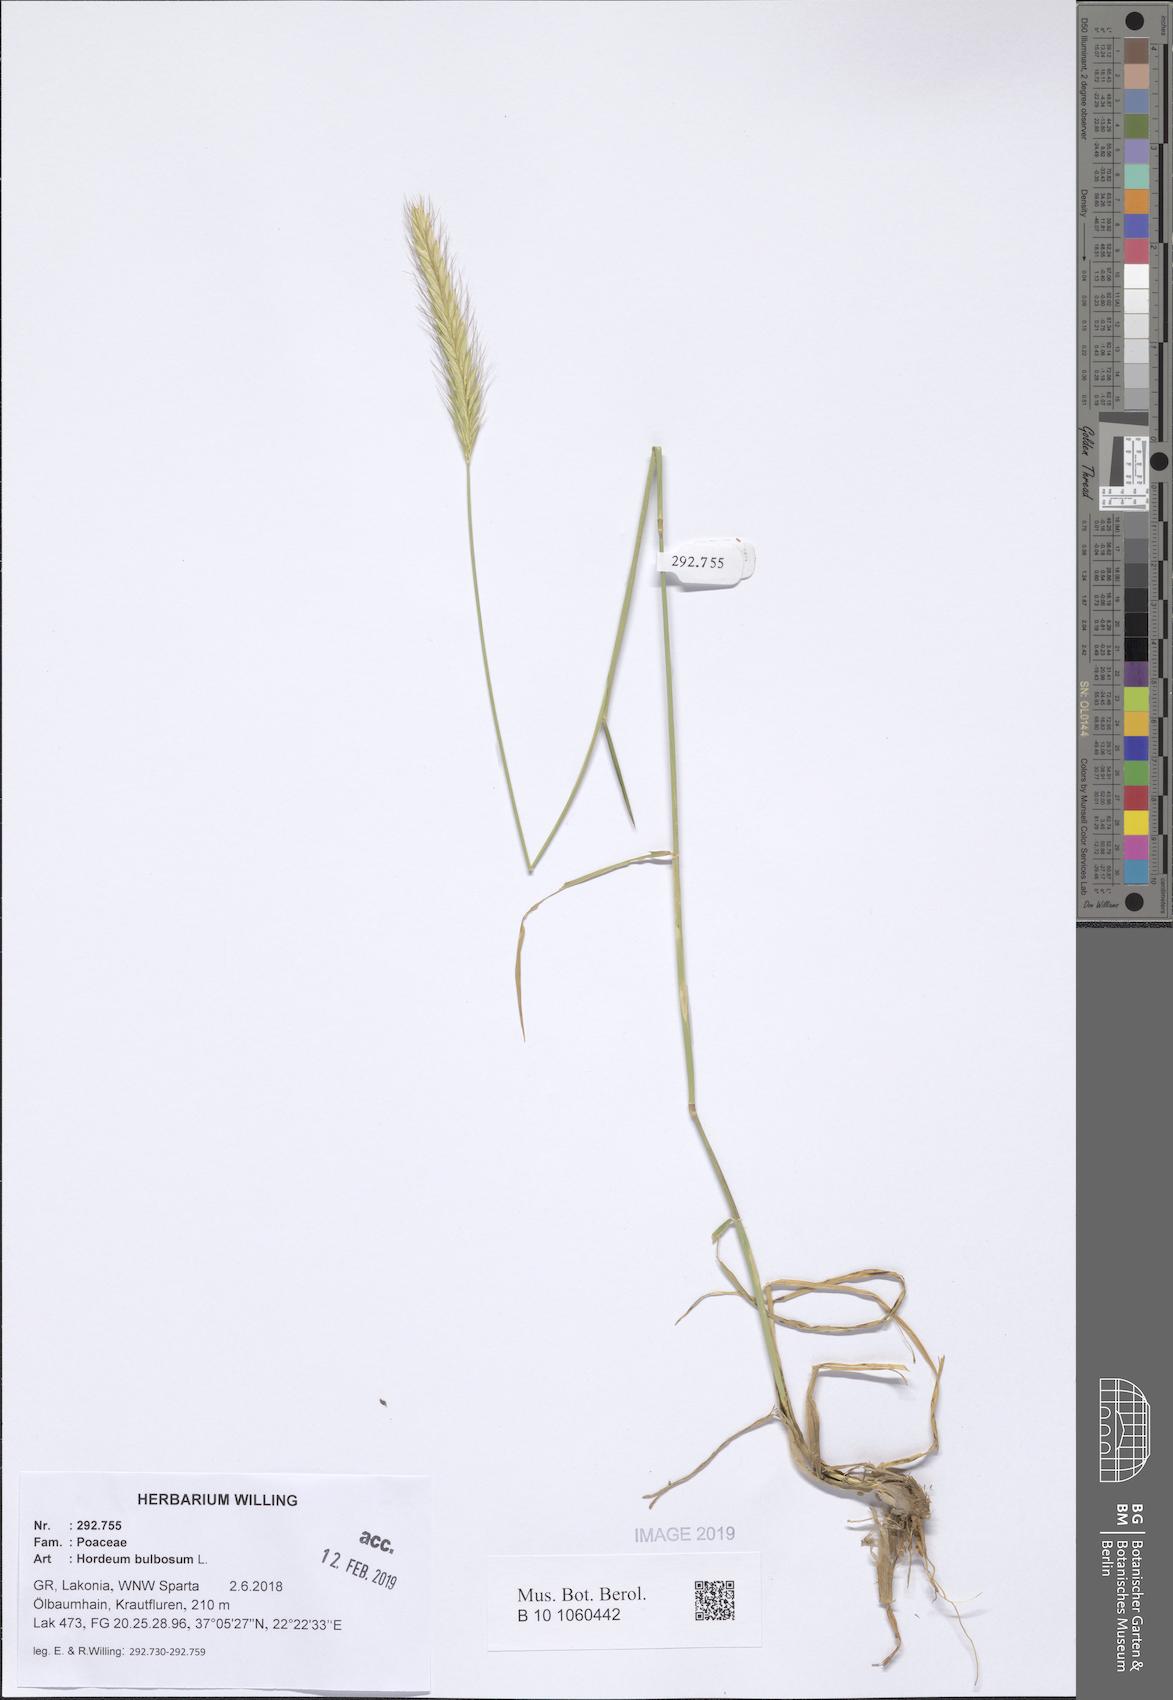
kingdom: Plantae
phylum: Tracheophyta
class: Liliopsida
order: Poales
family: Poaceae
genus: Hordeum
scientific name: Hordeum bulbosum
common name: Bulbous barley
